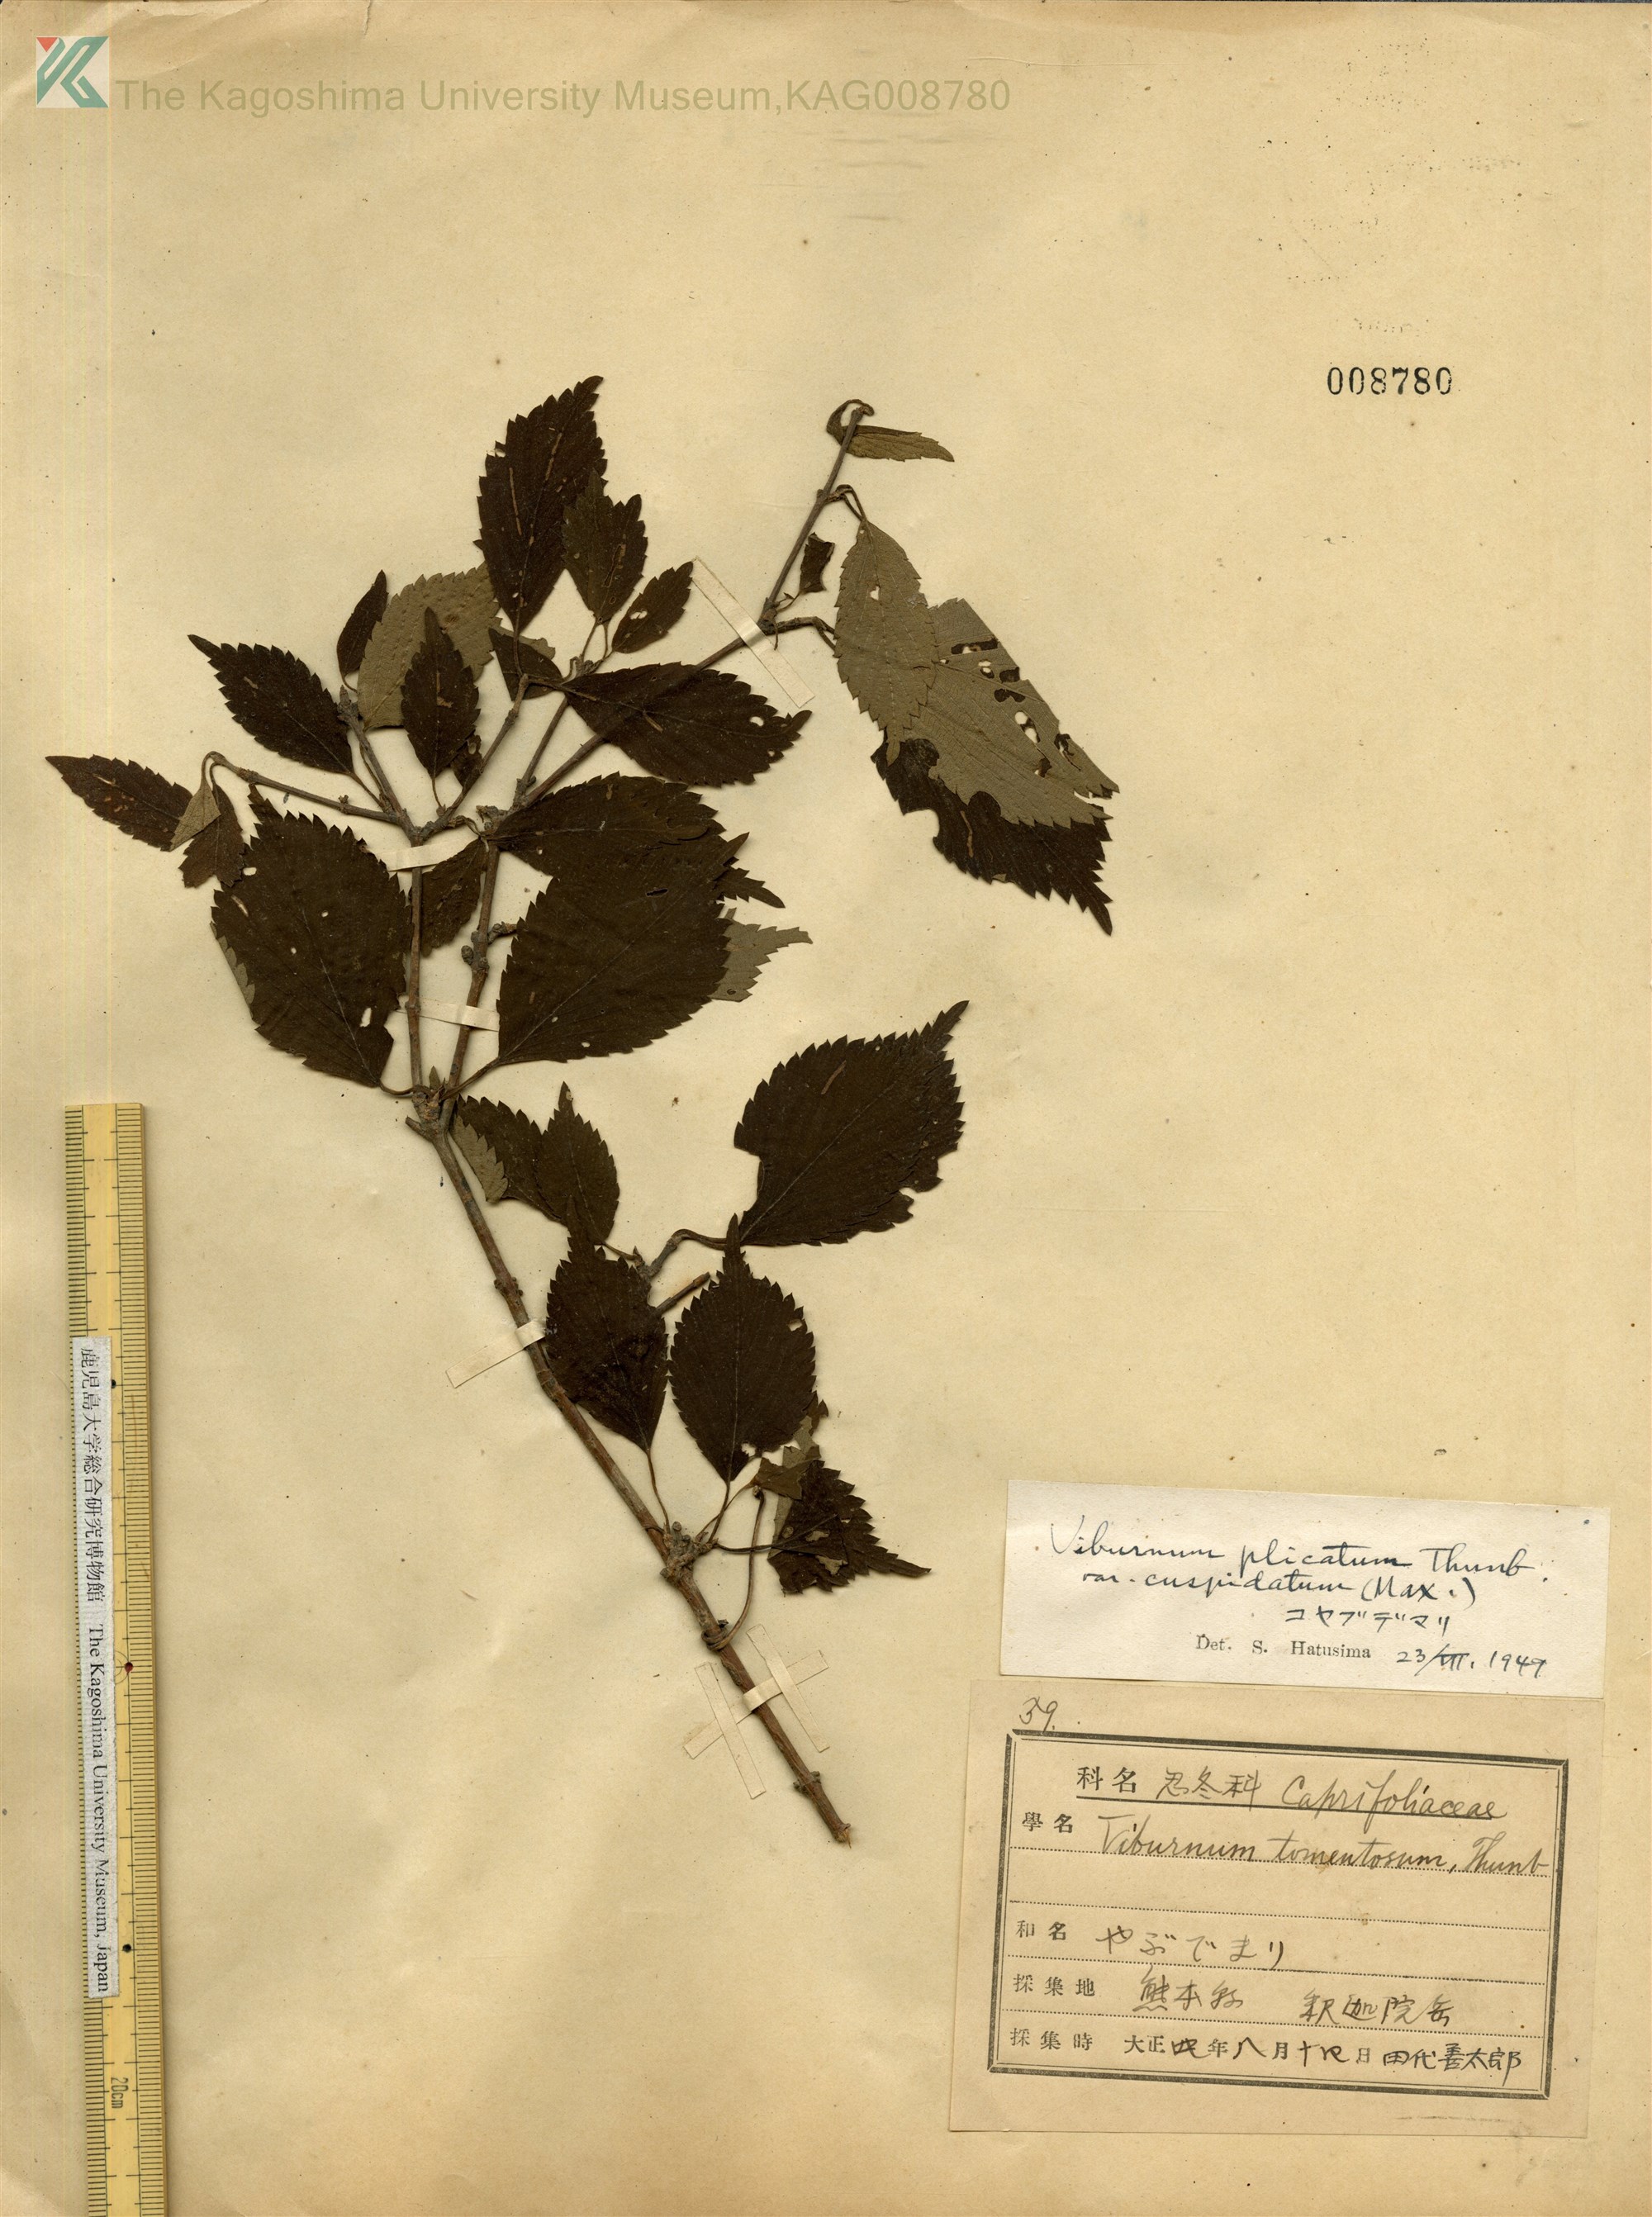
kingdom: Plantae
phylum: Tracheophyta
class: Magnoliopsida
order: Dipsacales
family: Viburnaceae
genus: Viburnum
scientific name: Viburnum plicatum
